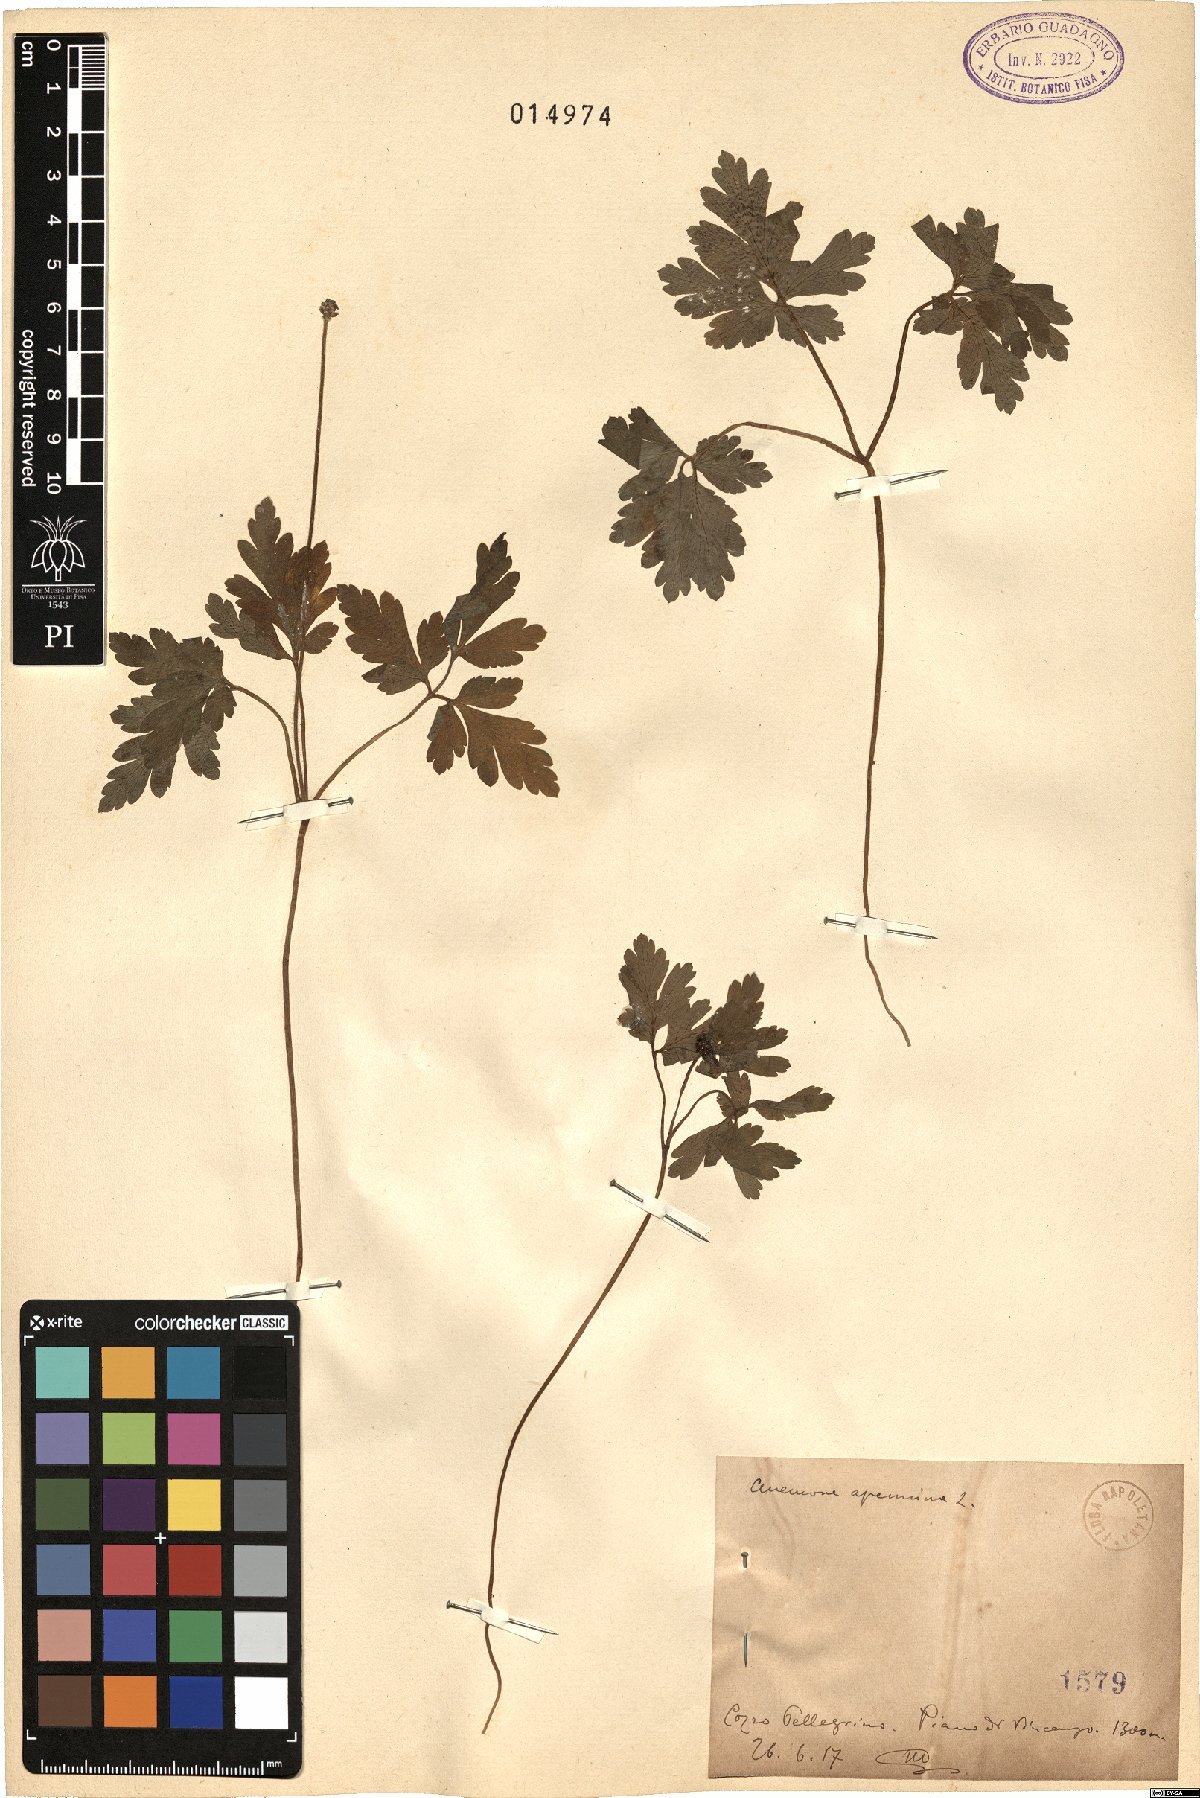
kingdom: Plantae
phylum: Tracheophyta
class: Magnoliopsida
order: Ranunculales
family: Ranunculaceae
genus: Anemone
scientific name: Anemone apennina
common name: Blue anemone
